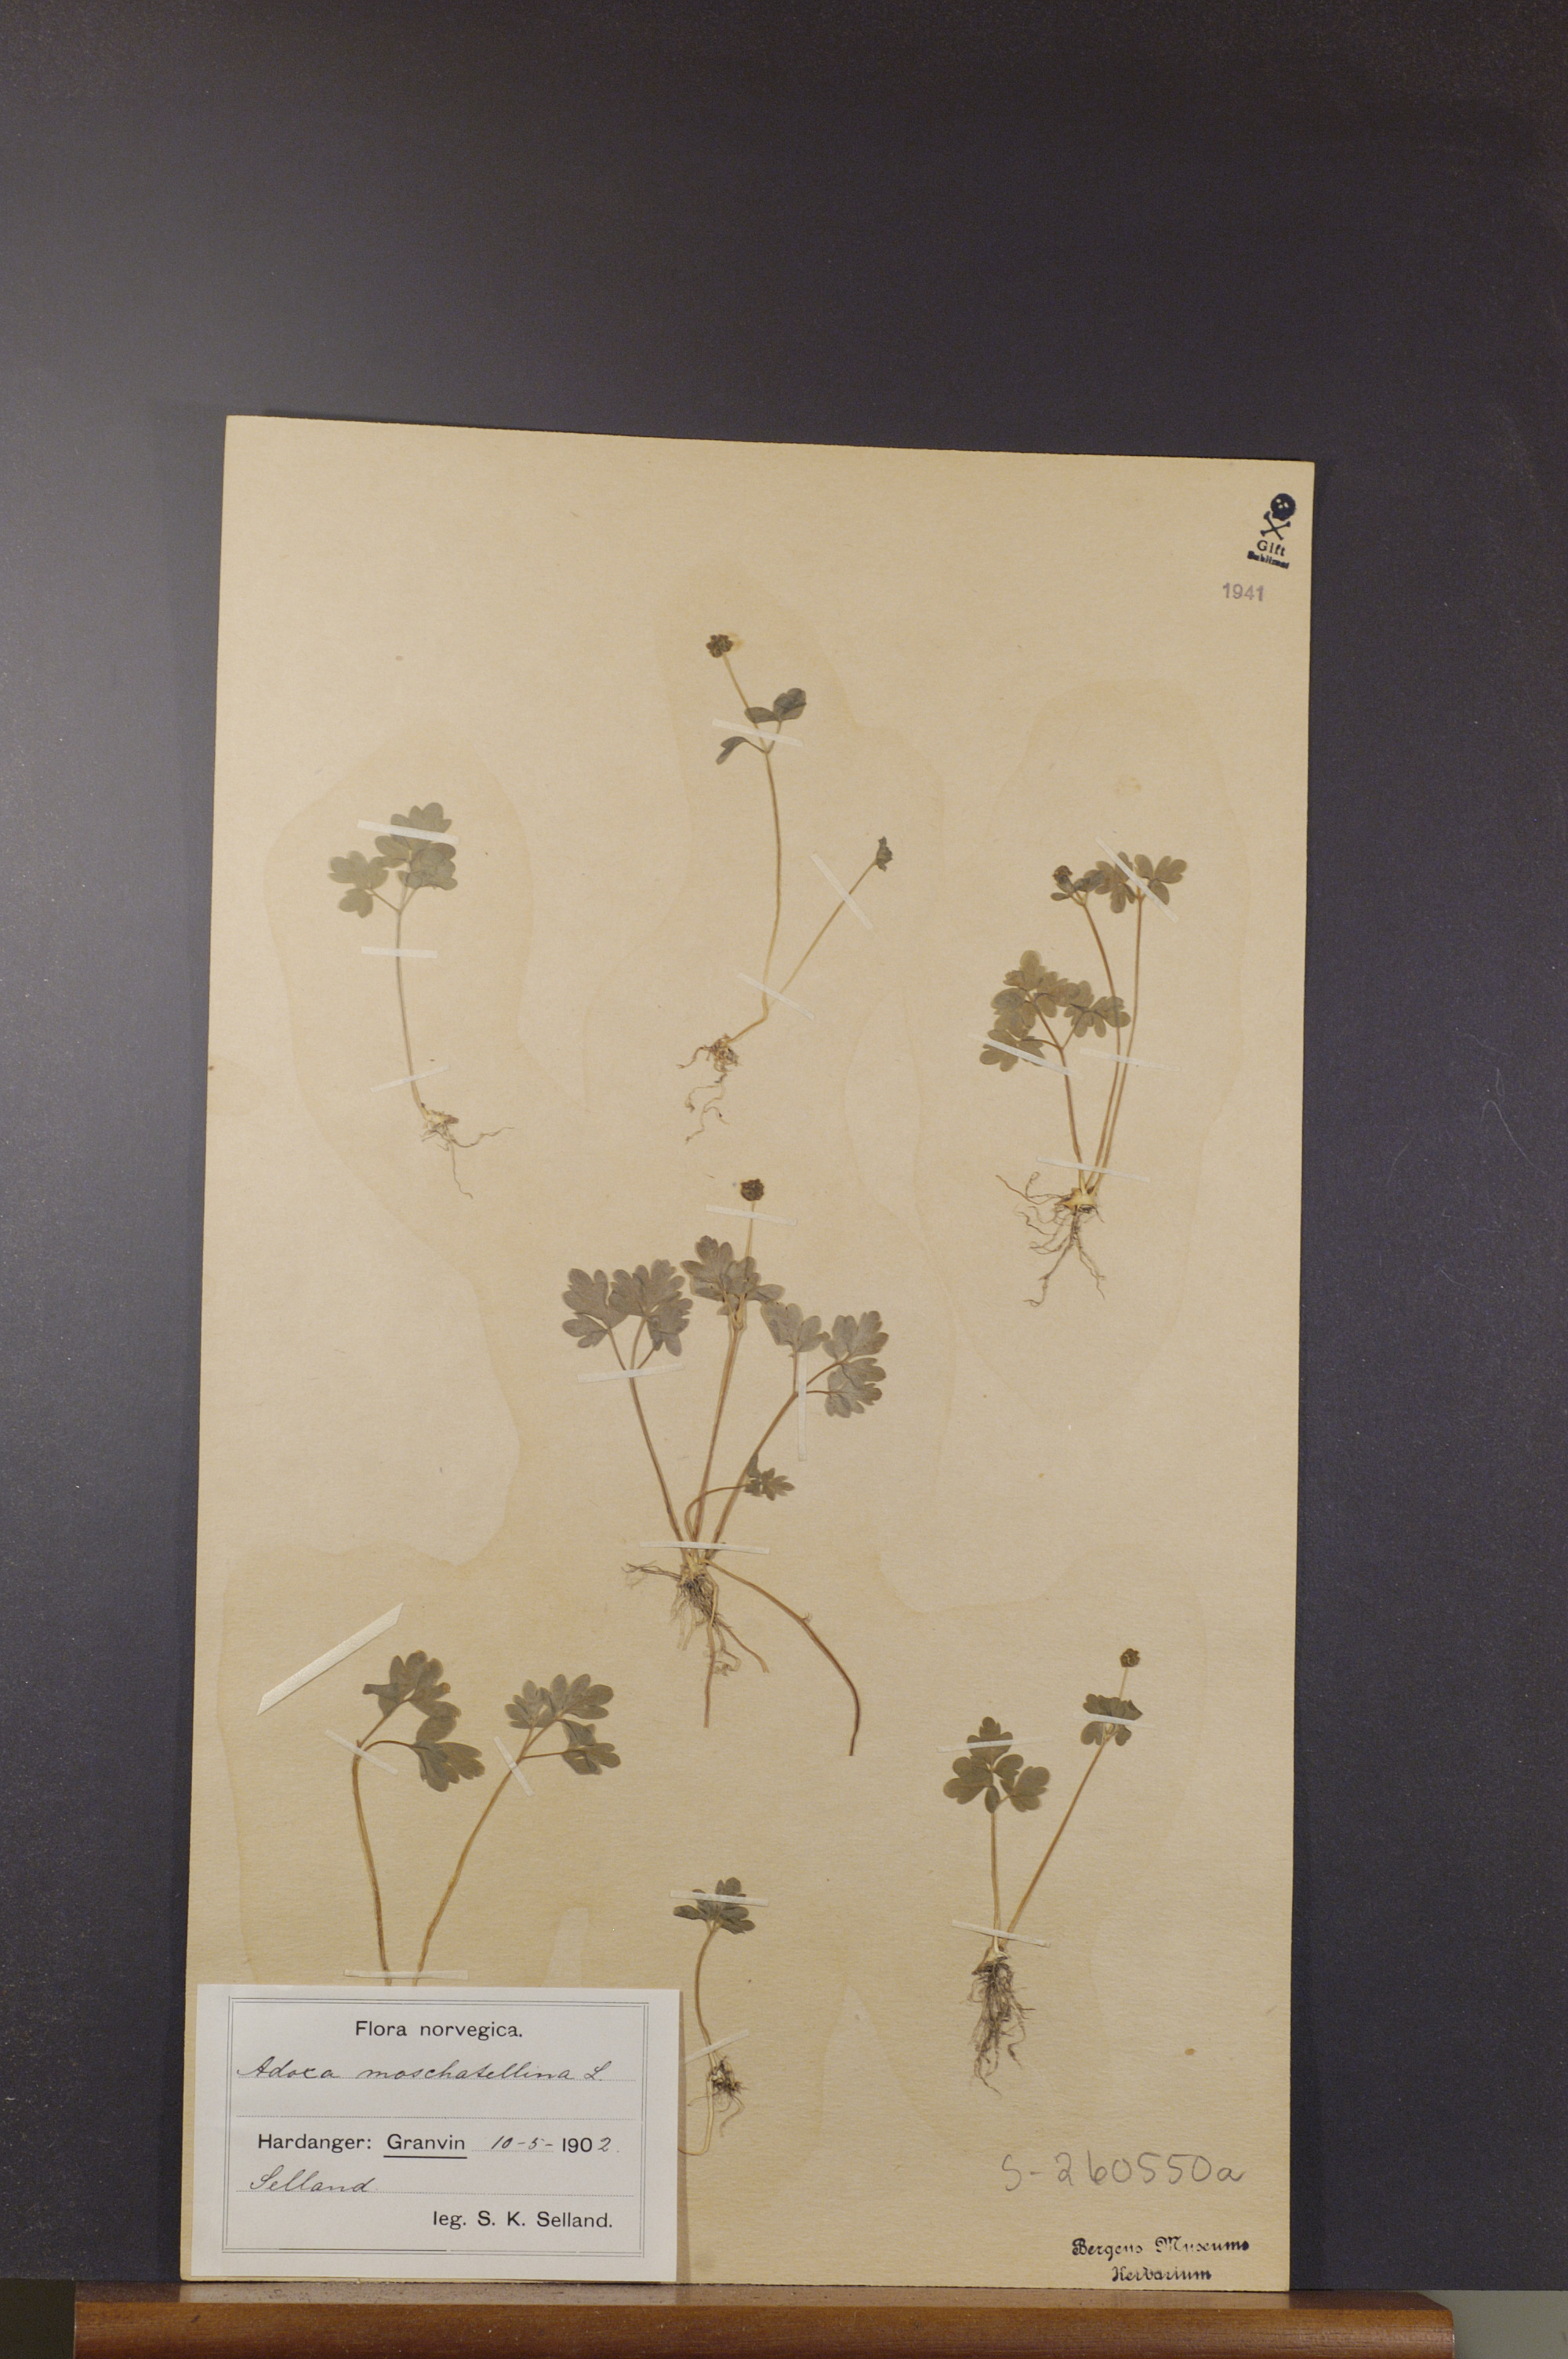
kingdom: Plantae
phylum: Tracheophyta
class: Magnoliopsida
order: Dipsacales
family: Viburnaceae
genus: Adoxa
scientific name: Adoxa moschatellina
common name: Moschatel
